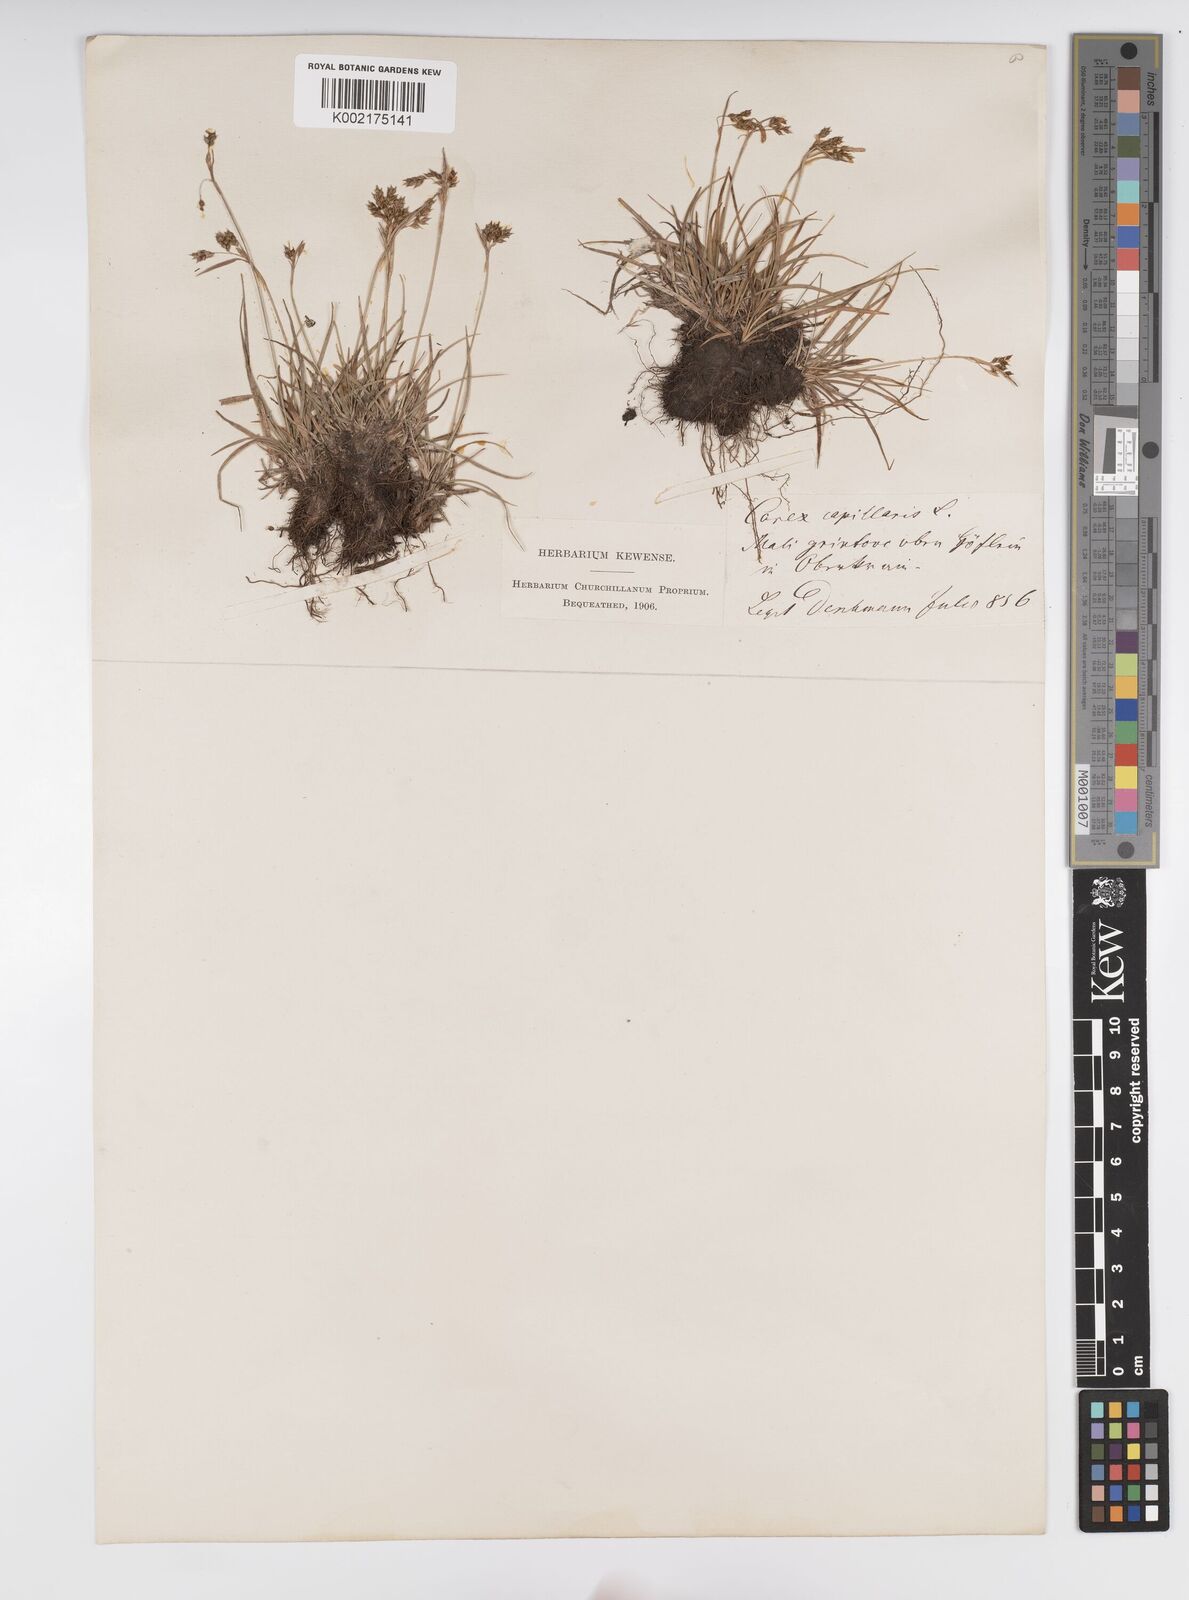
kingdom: Plantae
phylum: Tracheophyta
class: Liliopsida
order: Poales
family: Cyperaceae
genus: Carex
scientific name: Carex capillaris
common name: Hair sedge
